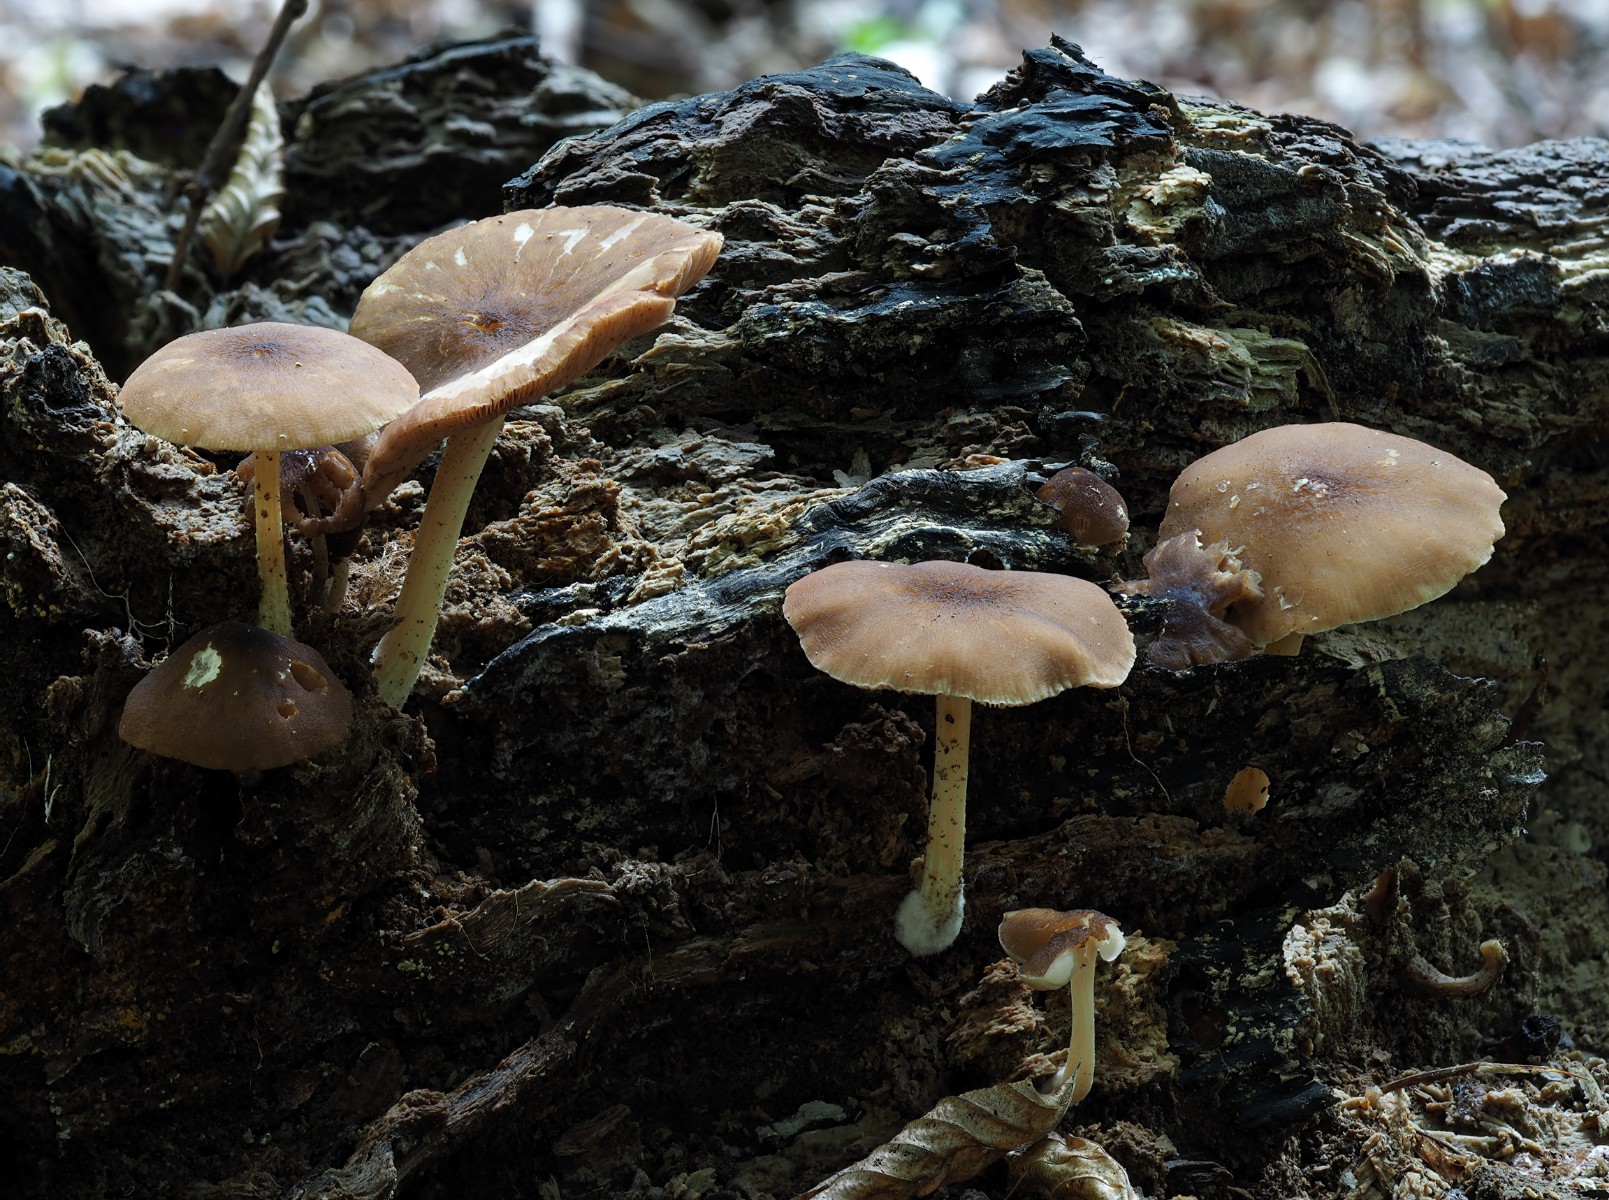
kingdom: Fungi
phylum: Basidiomycota
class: Agaricomycetes
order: Agaricales
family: Pluteaceae
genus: Pluteus
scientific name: Pluteus phlebophorus
